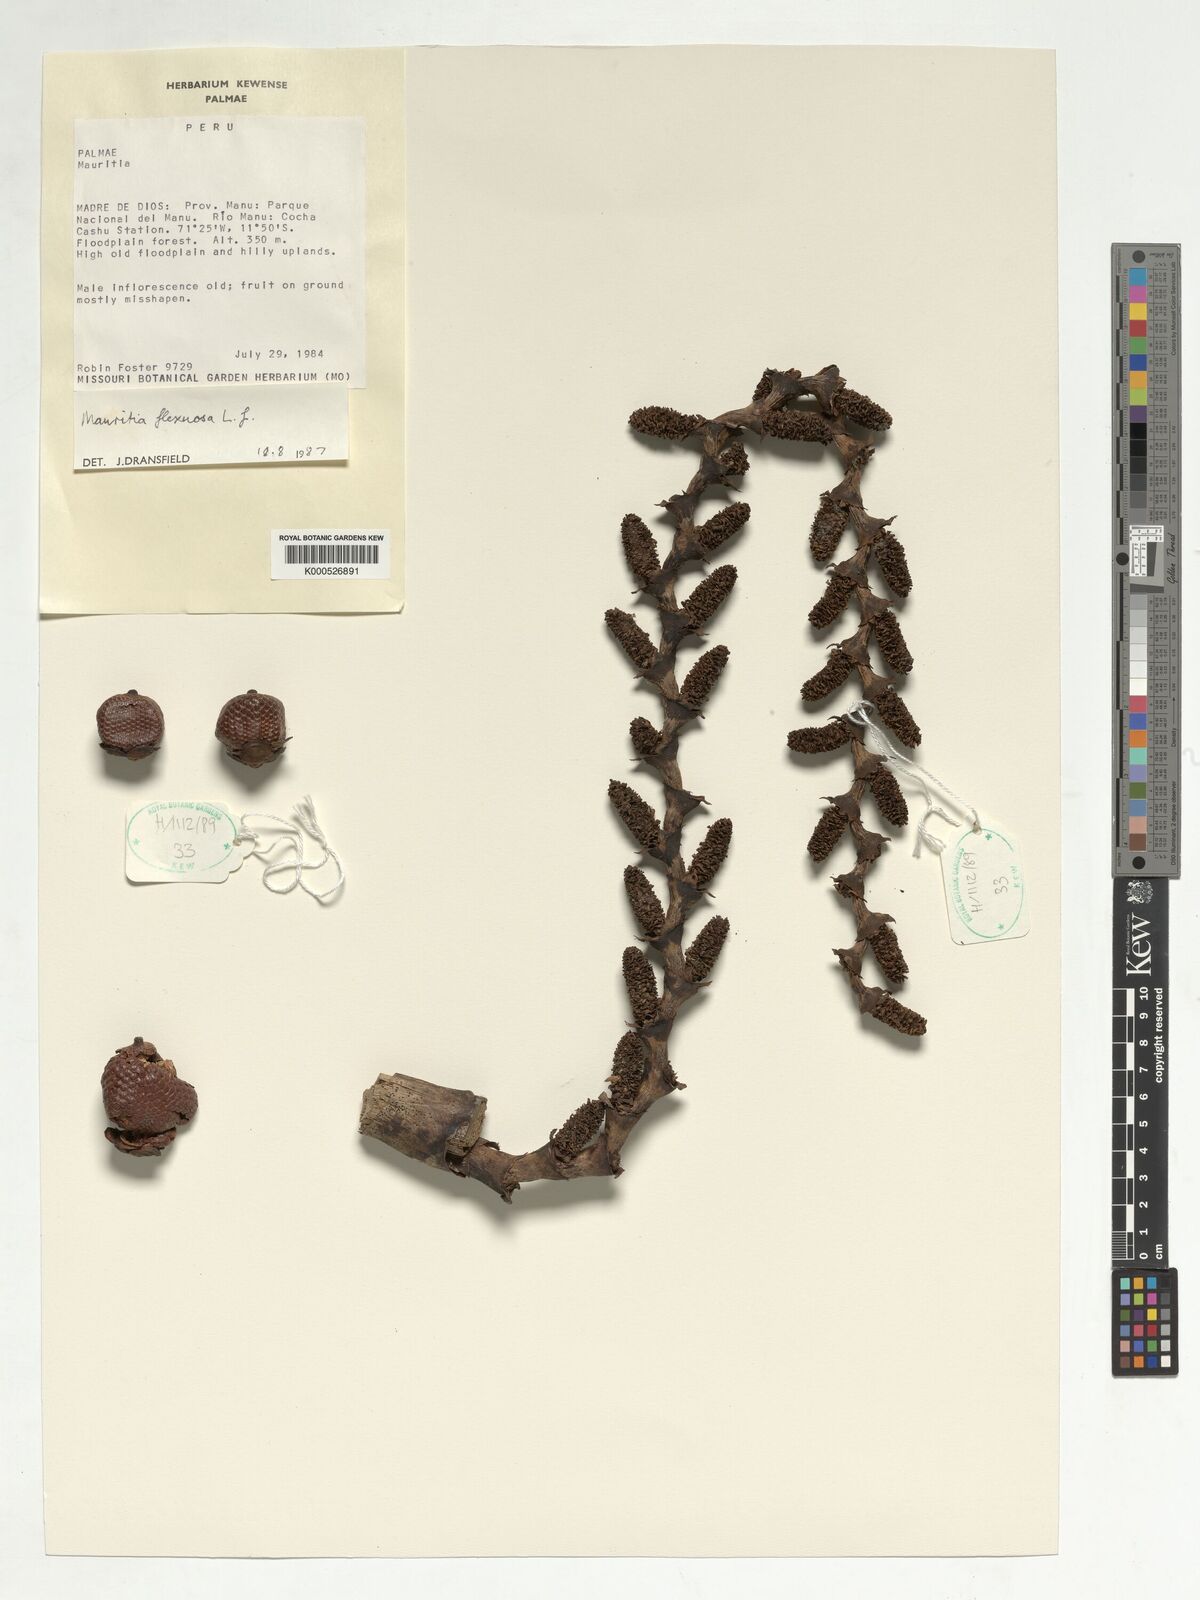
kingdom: Plantae
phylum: Tracheophyta
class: Liliopsida
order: Arecales
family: Arecaceae
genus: Mauritia
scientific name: Mauritia flexuosa
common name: Tree-of-life
